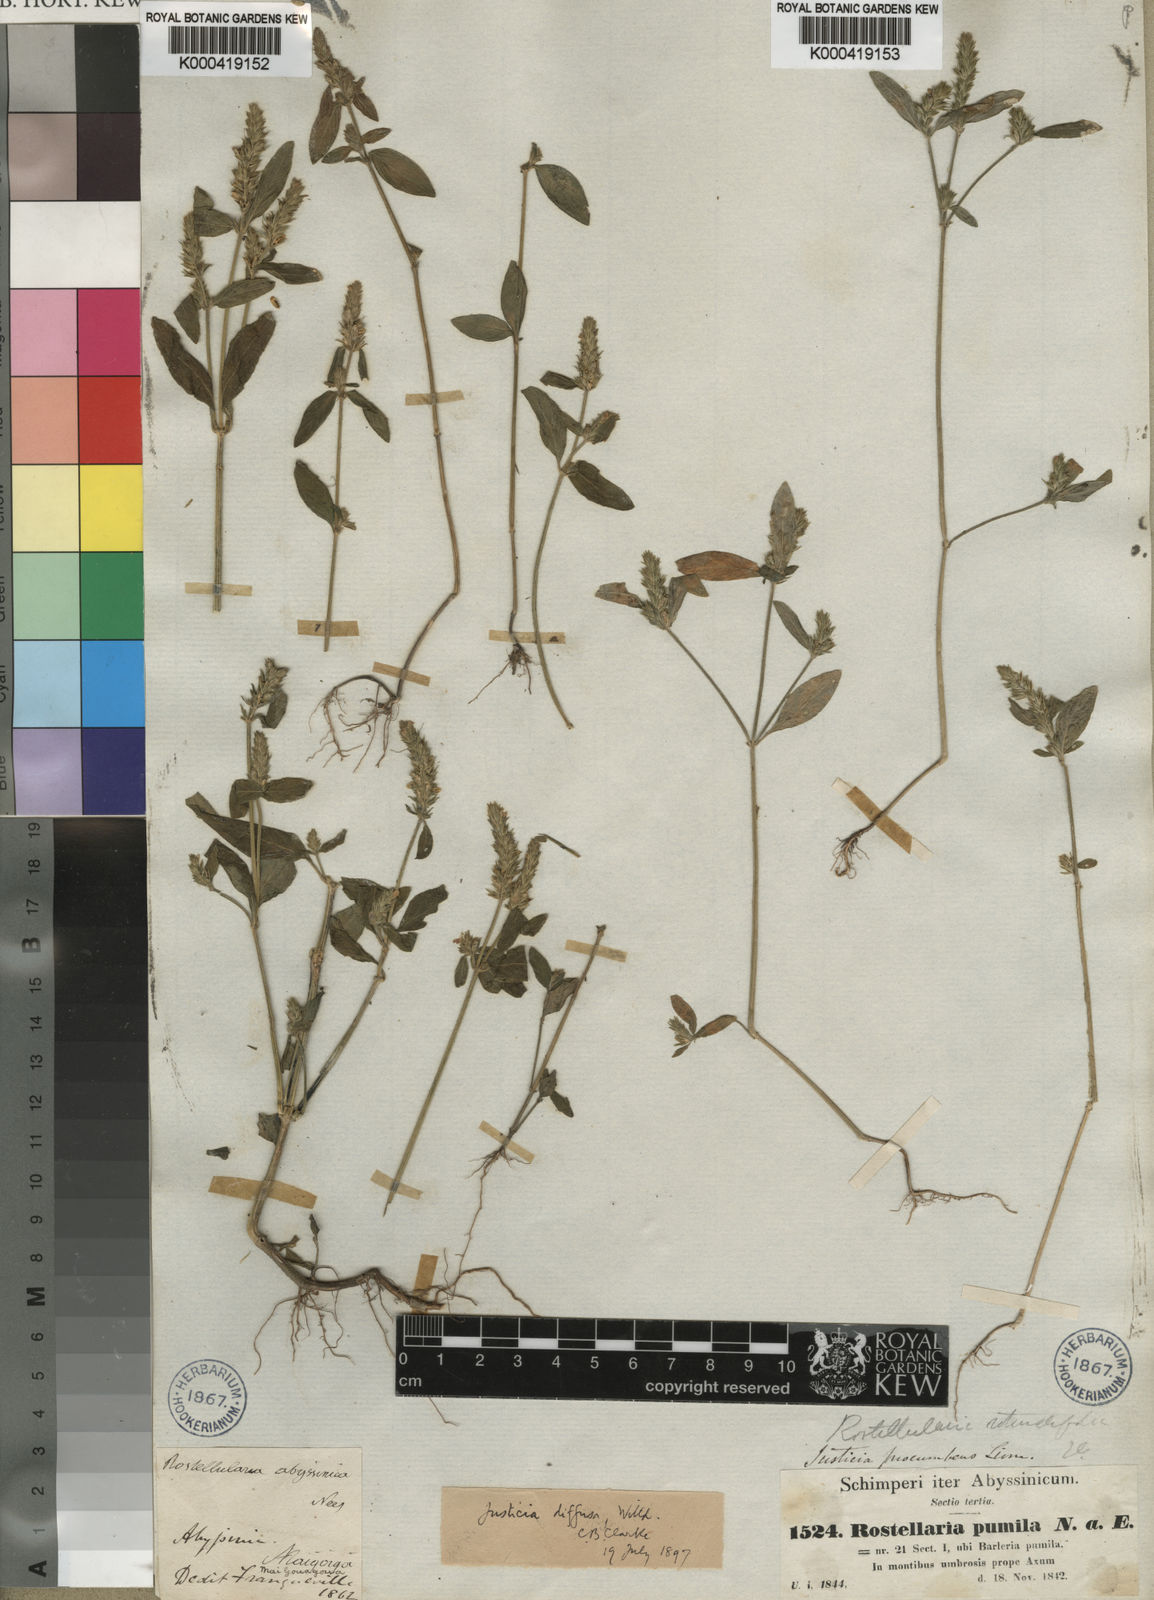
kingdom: Plantae
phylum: Tracheophyta
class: Magnoliopsida
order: Lamiales
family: Acanthaceae
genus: Rostellularia
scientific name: Rostellularia diffusa
